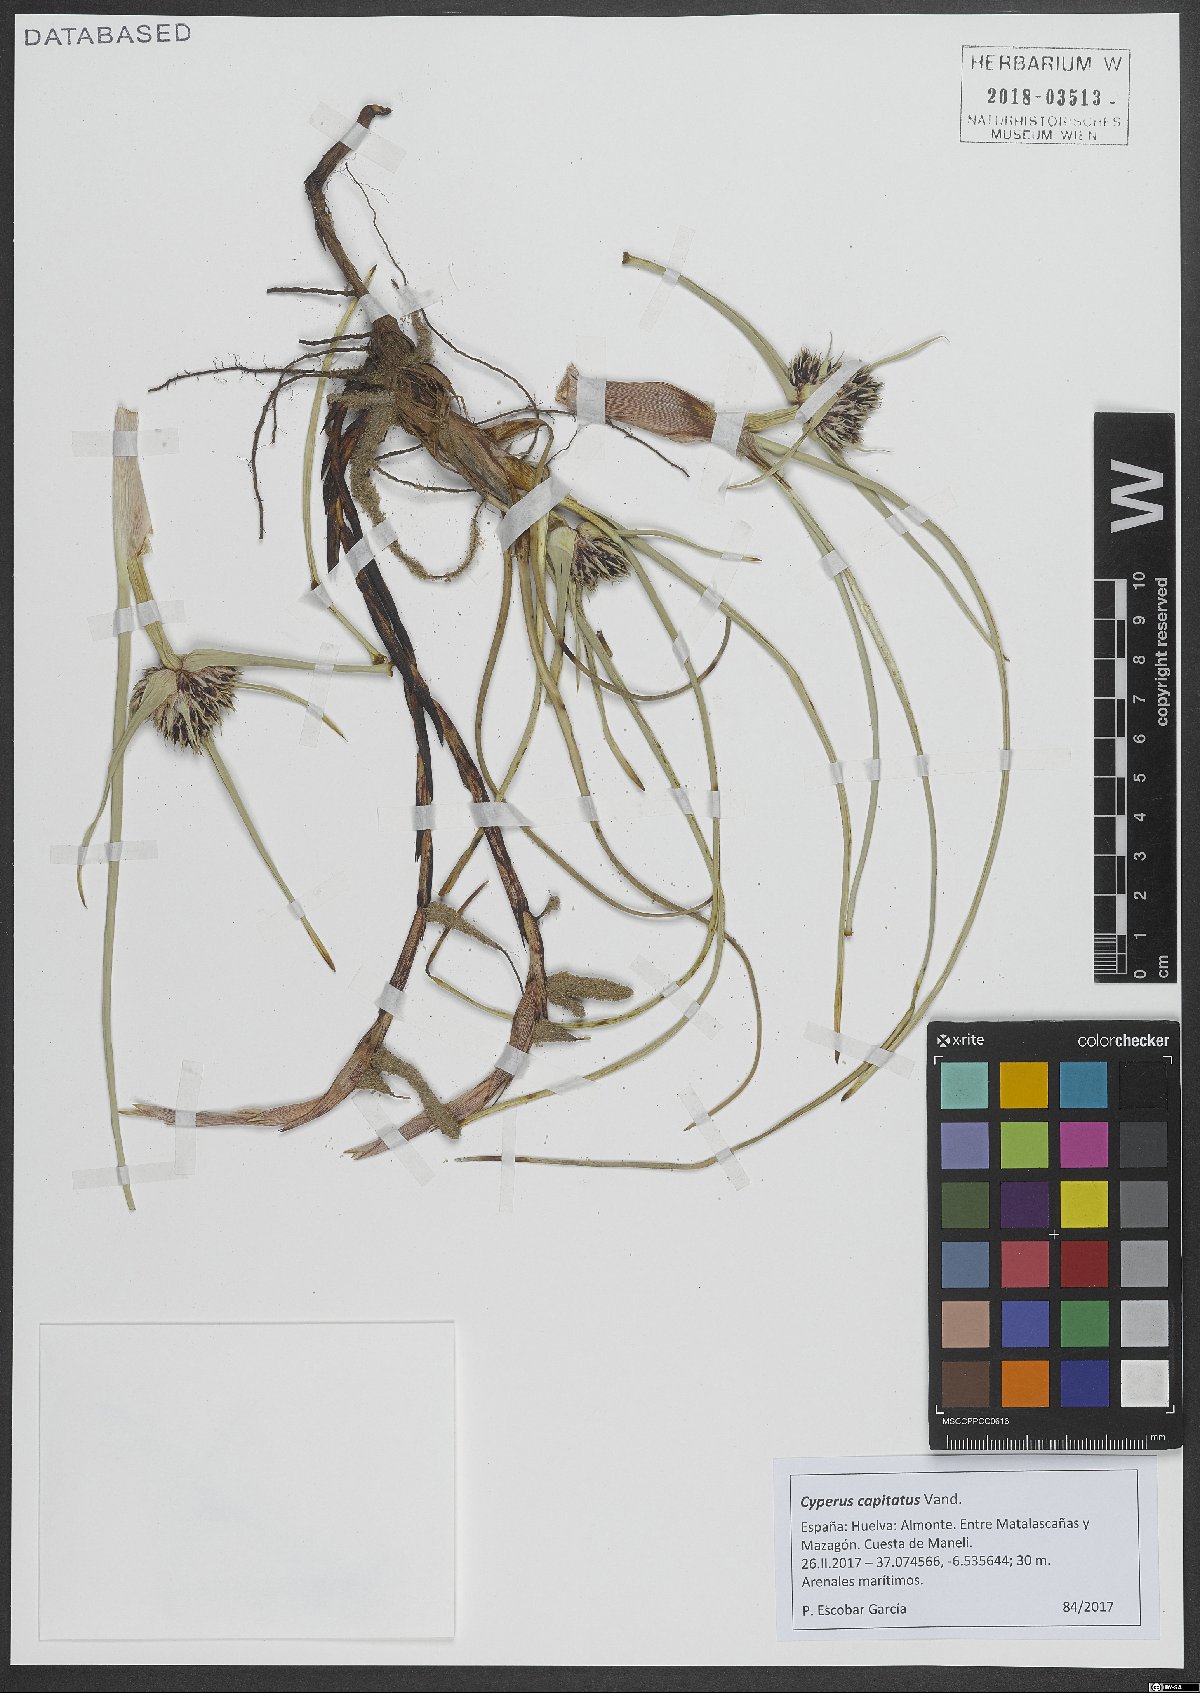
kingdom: Plantae
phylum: Tracheophyta
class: Liliopsida
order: Poales
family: Cyperaceae
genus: Cyperus
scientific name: Cyperus capitatus
